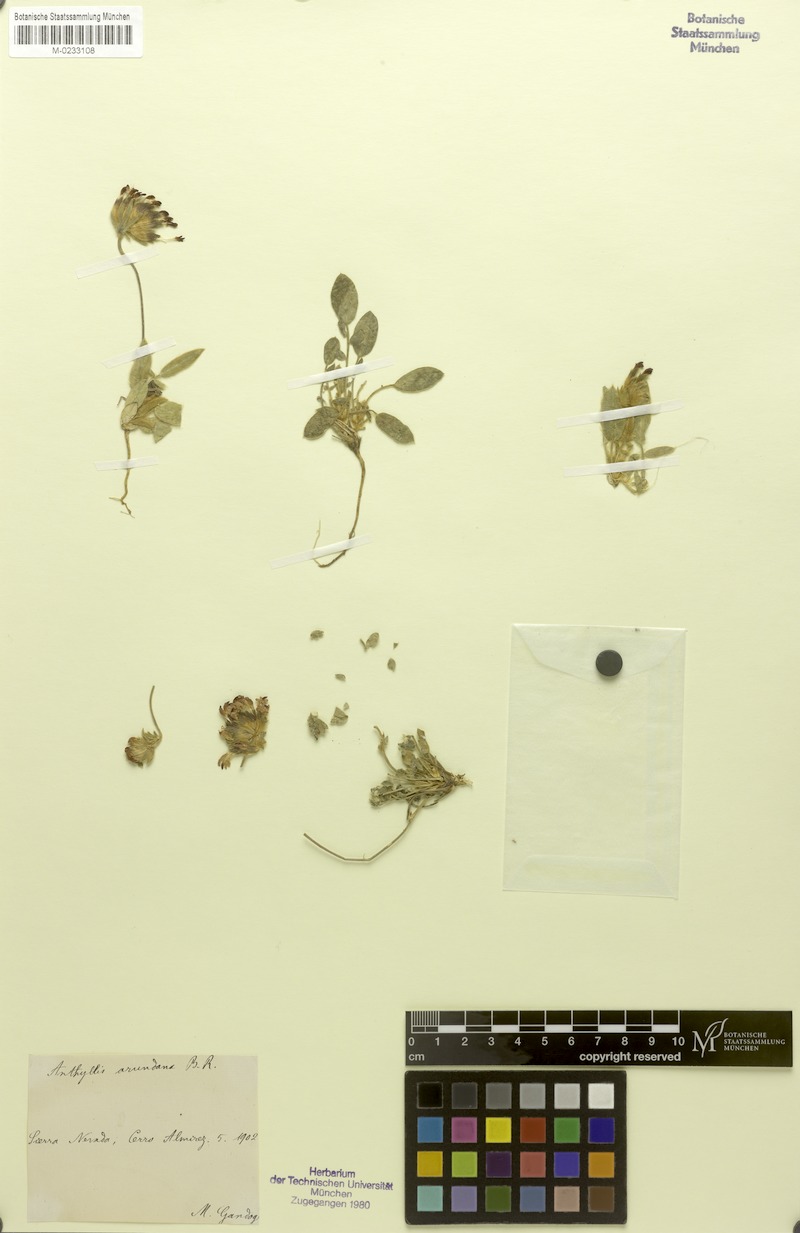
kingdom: Plantae
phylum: Tracheophyta
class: Magnoliopsida
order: Fabales
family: Fabaceae
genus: Anthyllis
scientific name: Anthyllis vulneraria
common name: Kidney vetch
